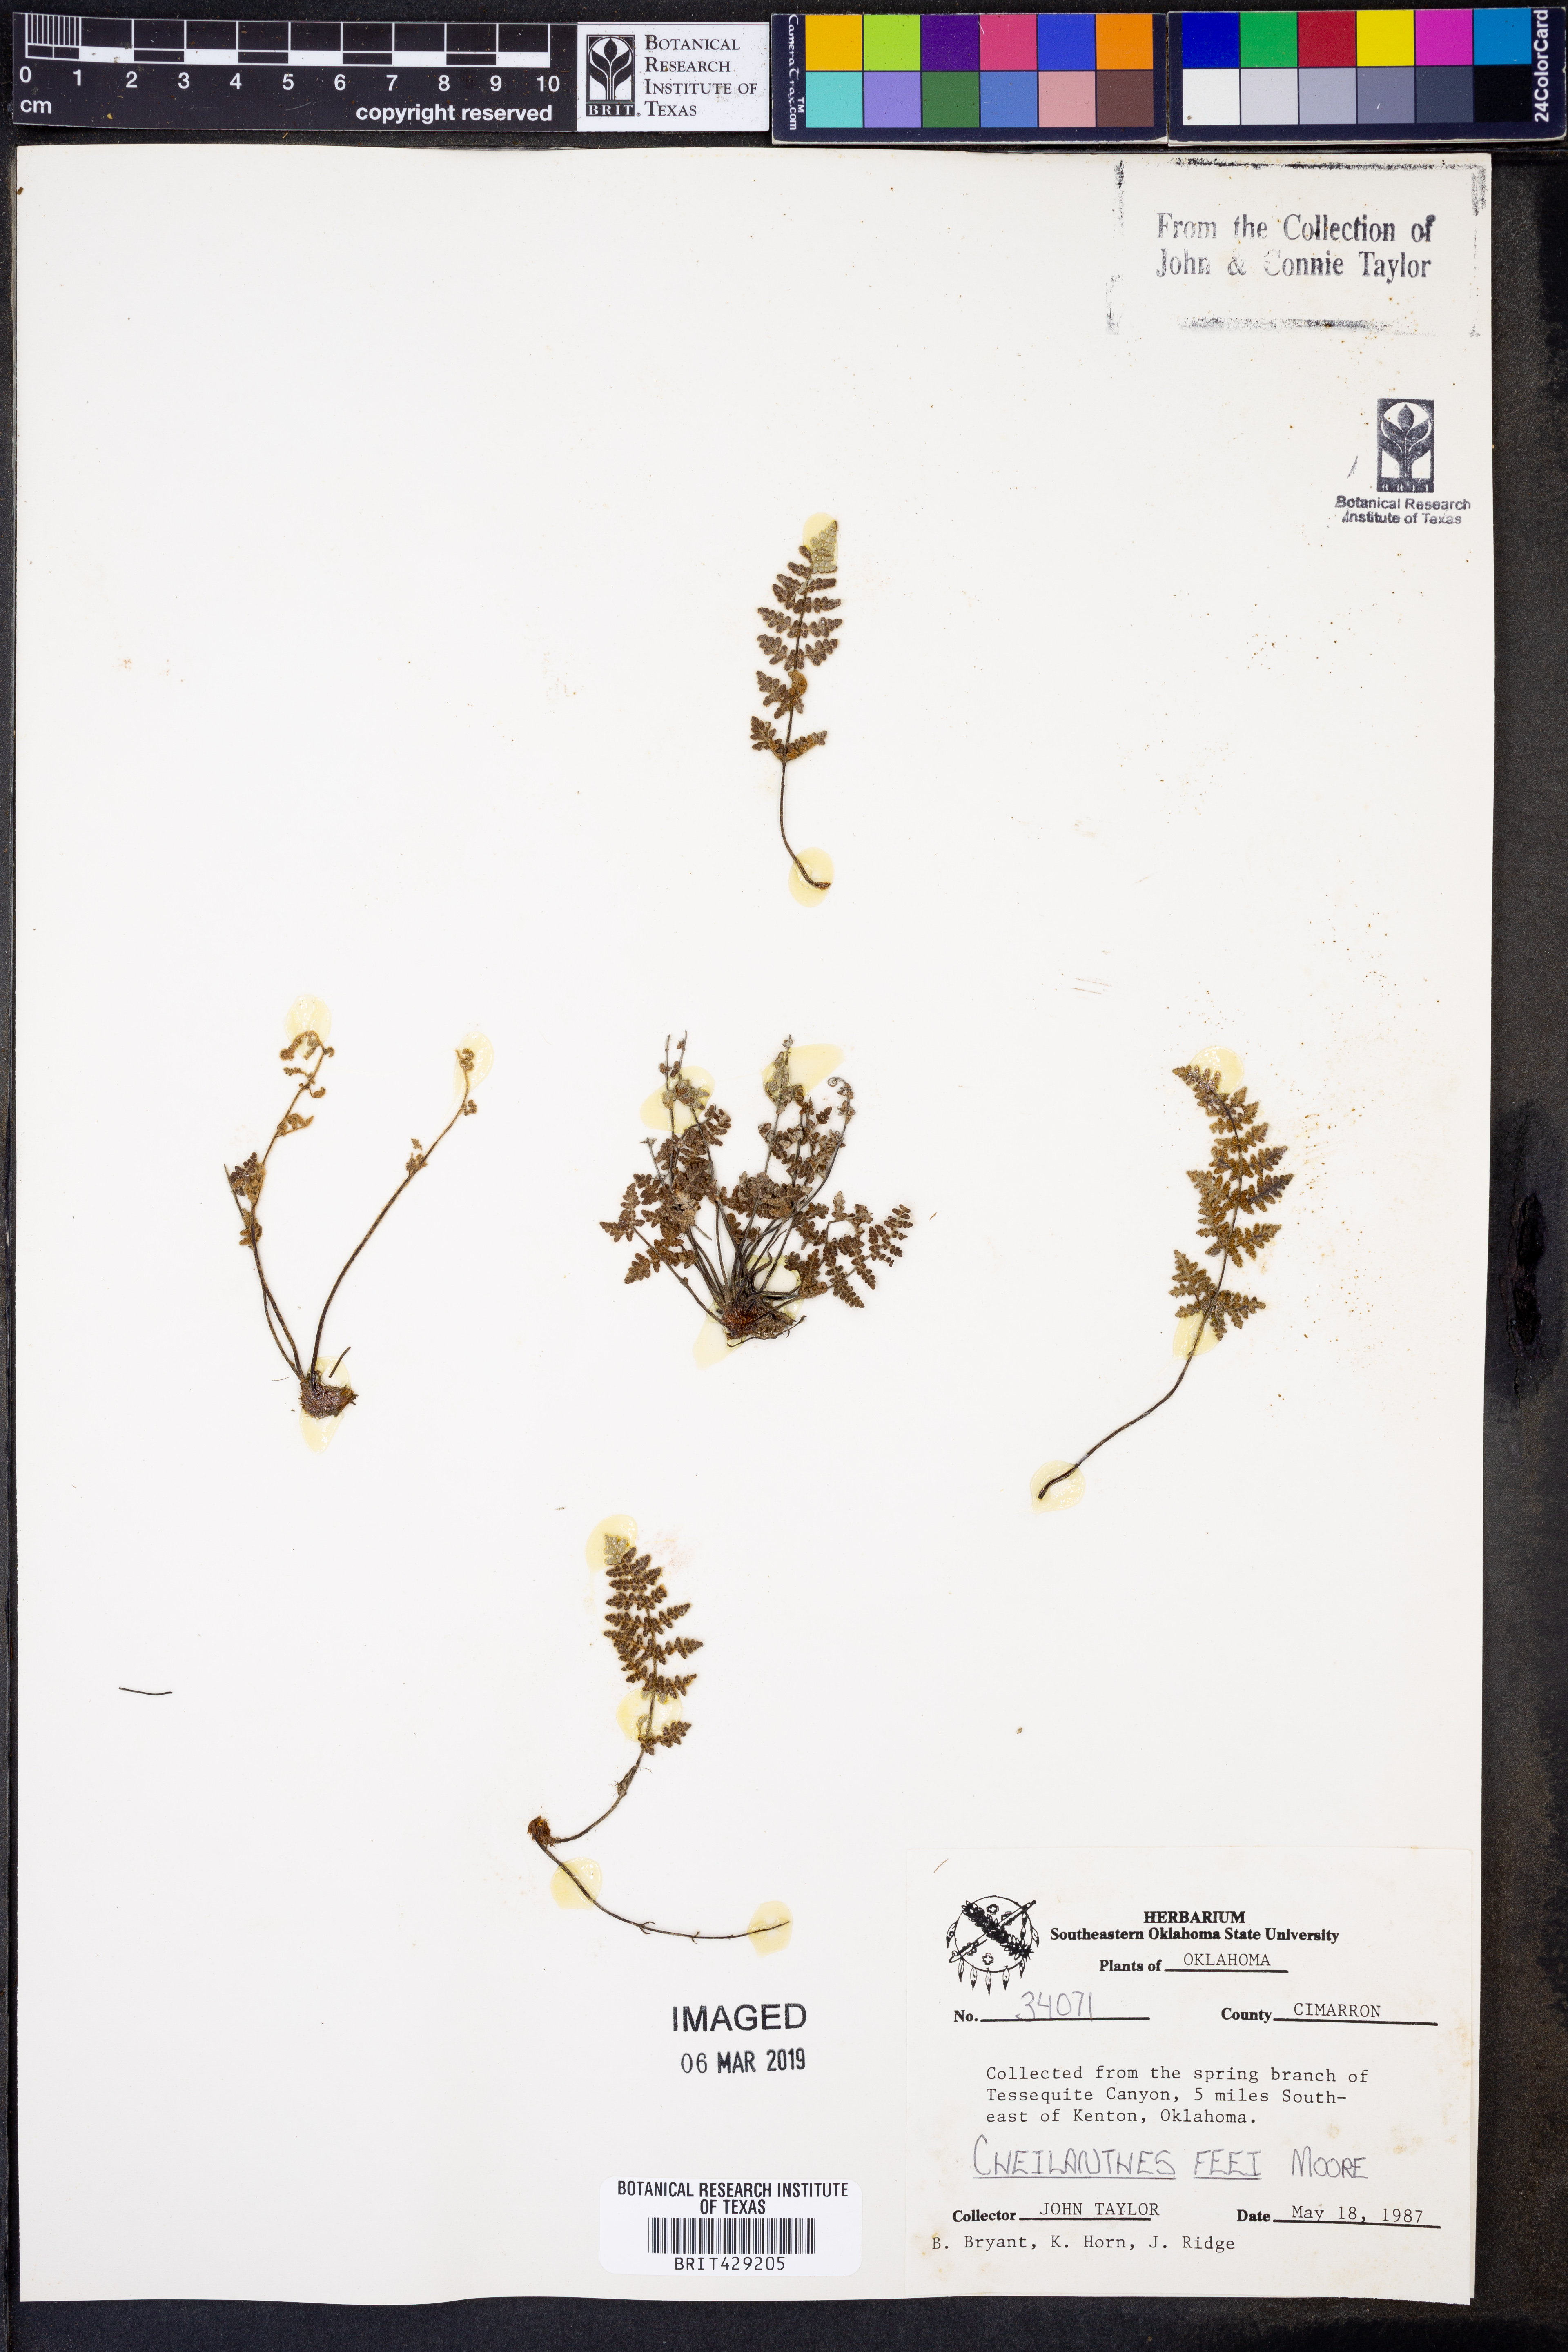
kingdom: Plantae
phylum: Tracheophyta
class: Polypodiopsida
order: Polypodiales
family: Pteridaceae
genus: Myriopteris
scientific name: Myriopteris gracilis
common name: Fee's lip fern
